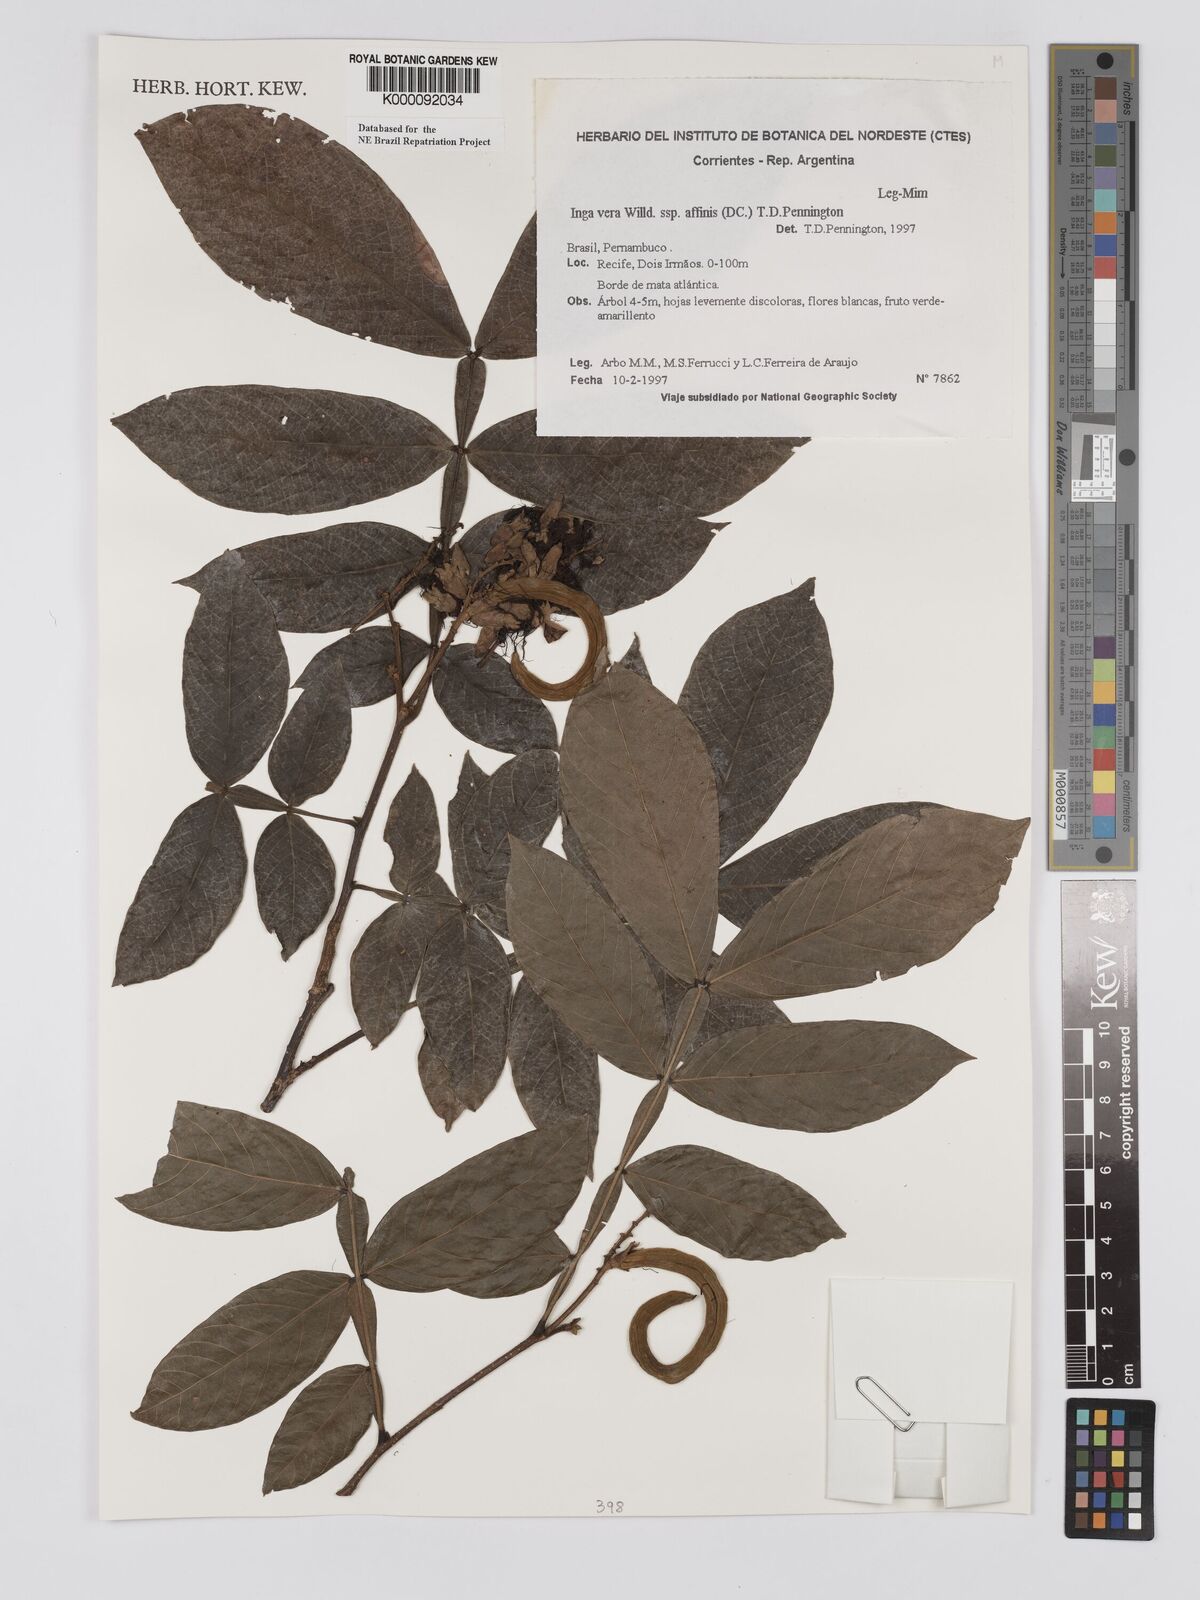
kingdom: Plantae
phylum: Tracheophyta
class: Magnoliopsida
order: Fabales
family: Fabaceae
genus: Inga
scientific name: Inga affinis
